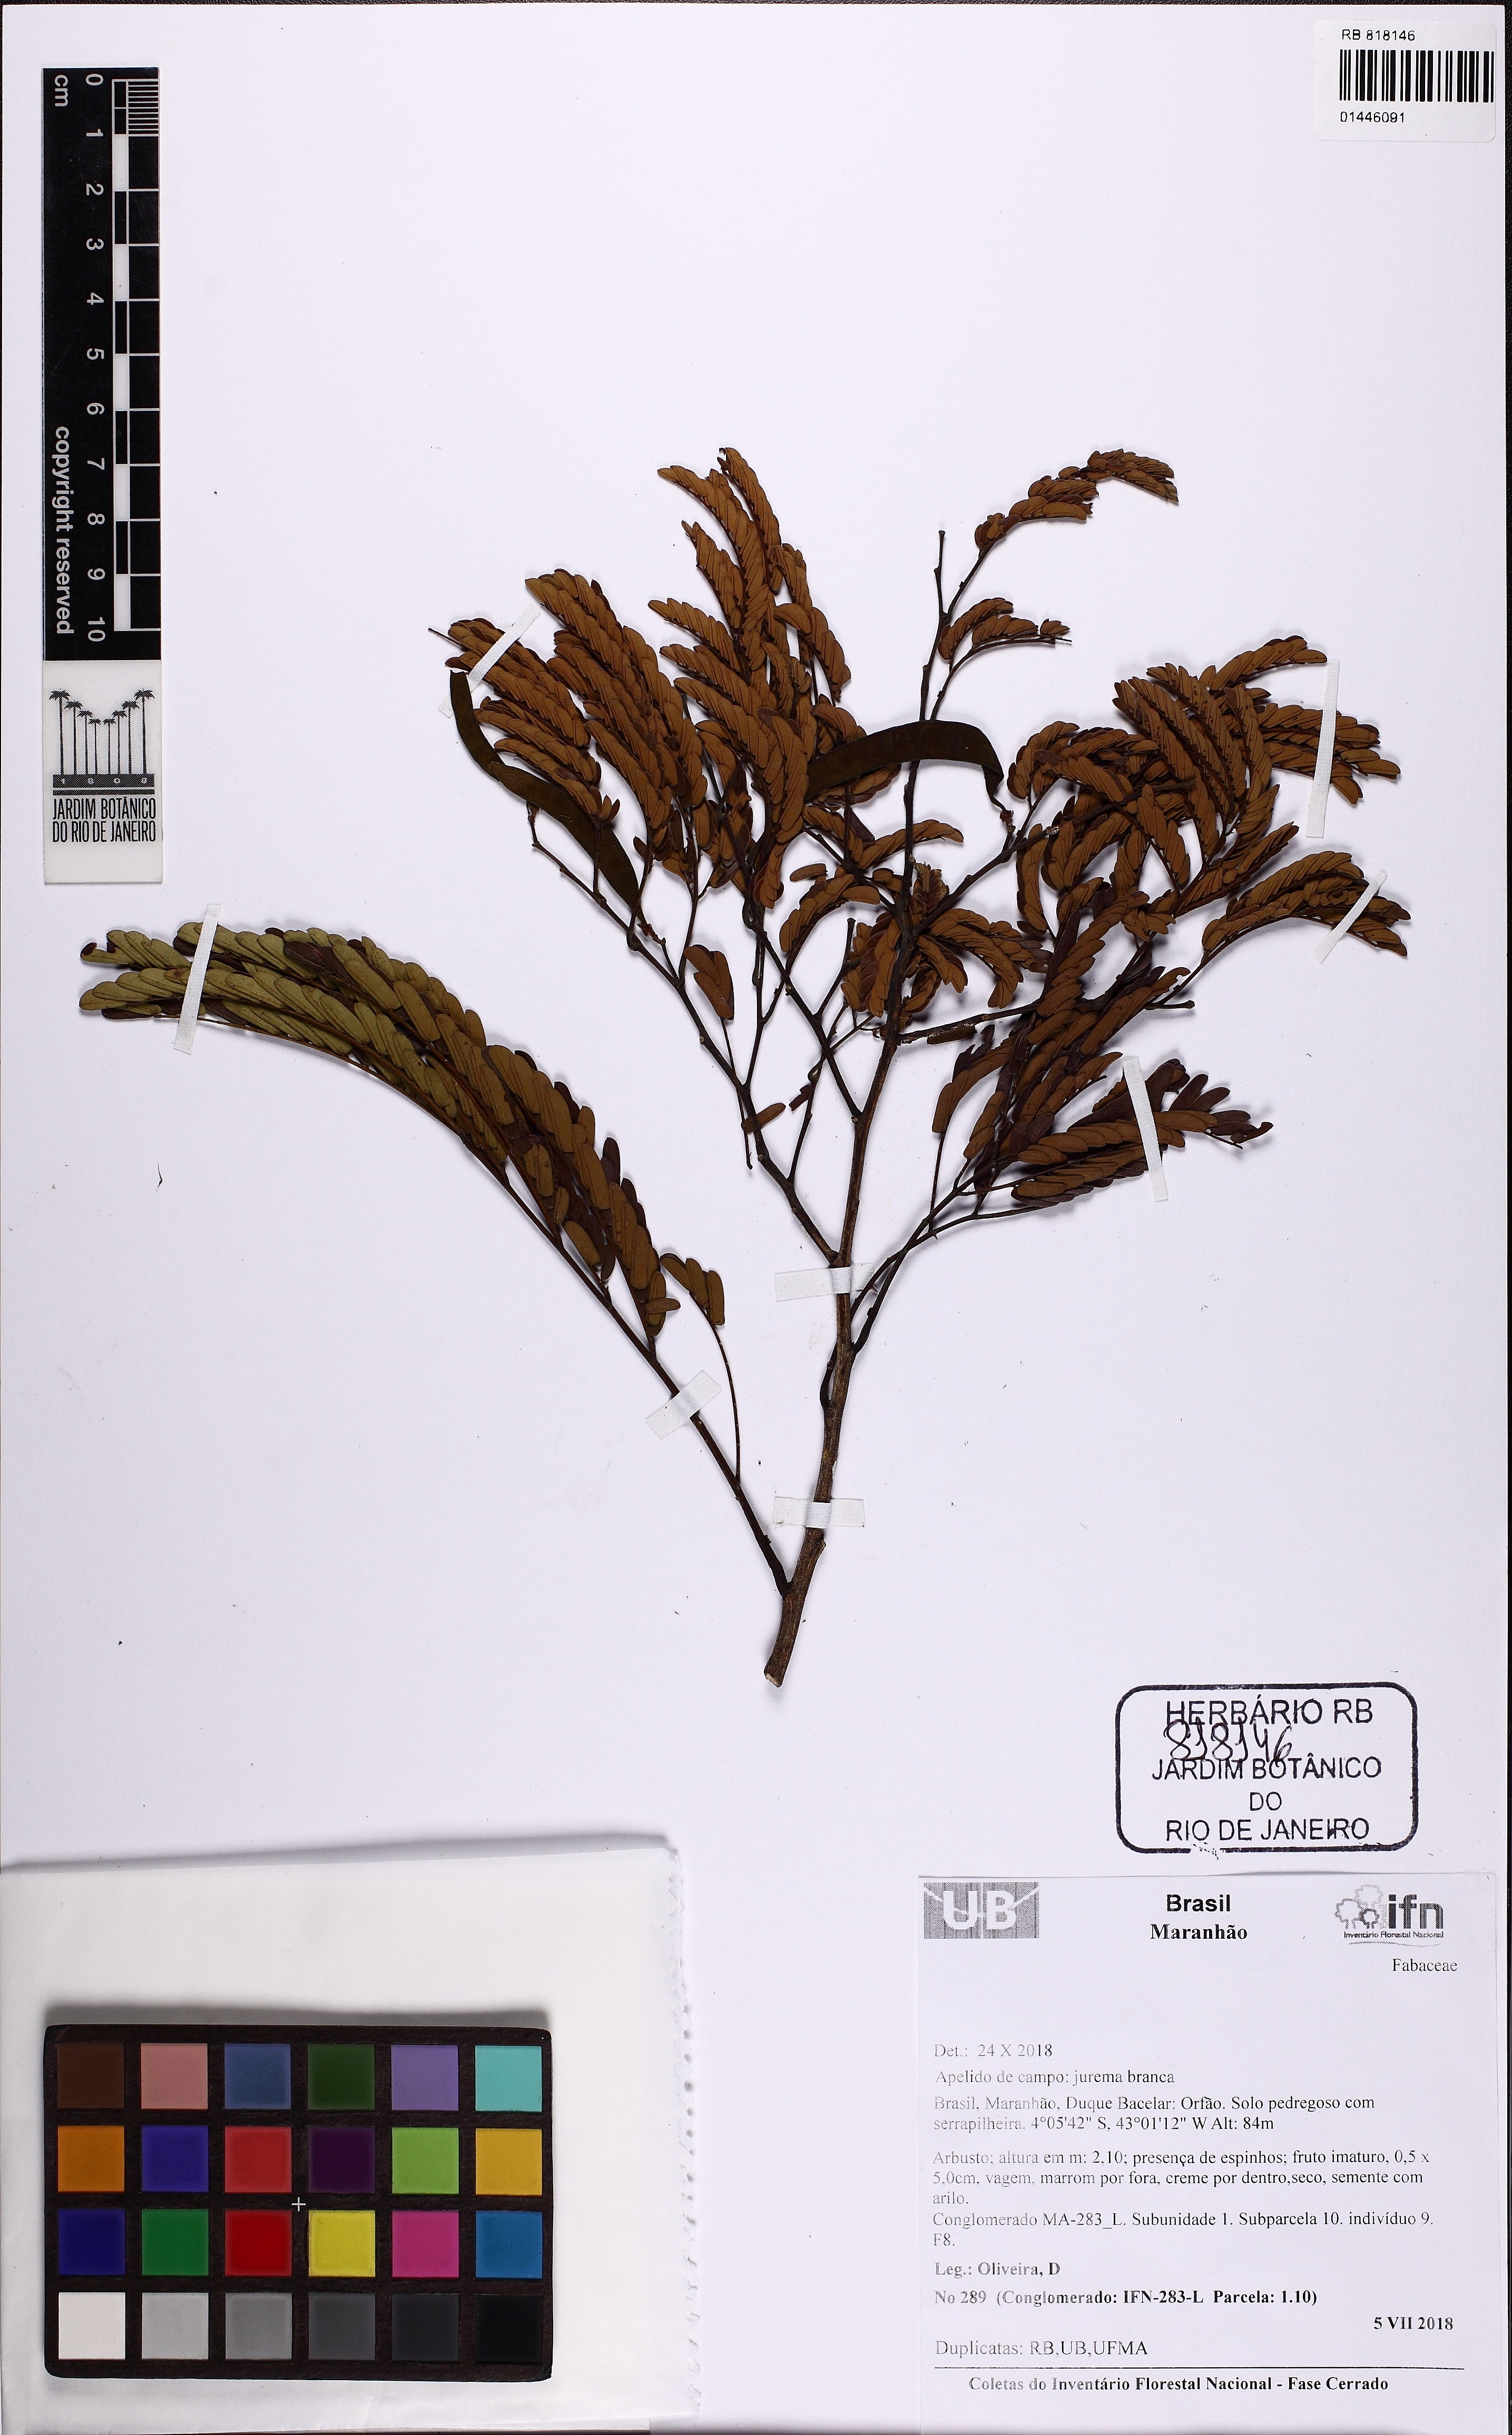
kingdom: Plantae
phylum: Tracheophyta
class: Magnoliopsida
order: Fabales
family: Fabaceae
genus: Senegalia
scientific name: Senegalia
